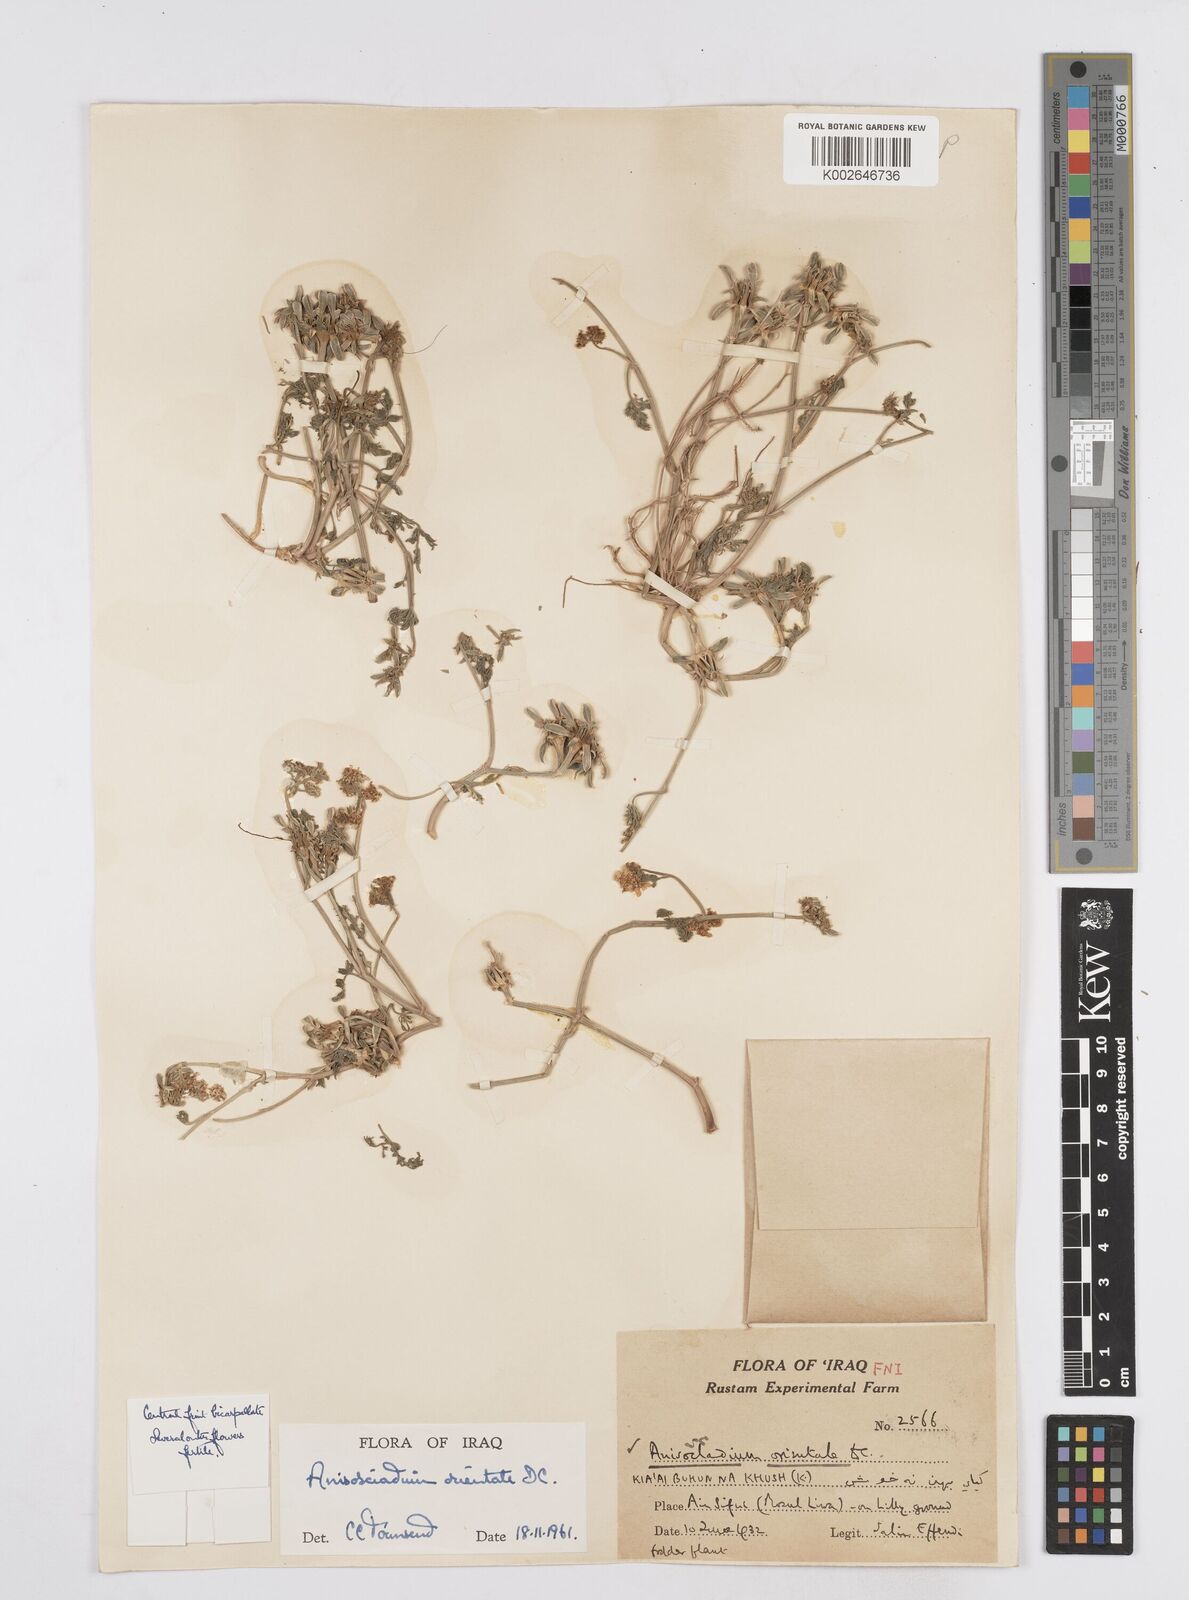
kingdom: Plantae
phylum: Tracheophyta
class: Magnoliopsida
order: Apiales
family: Apiaceae
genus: Anisosciadium
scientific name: Anisosciadium orientale
